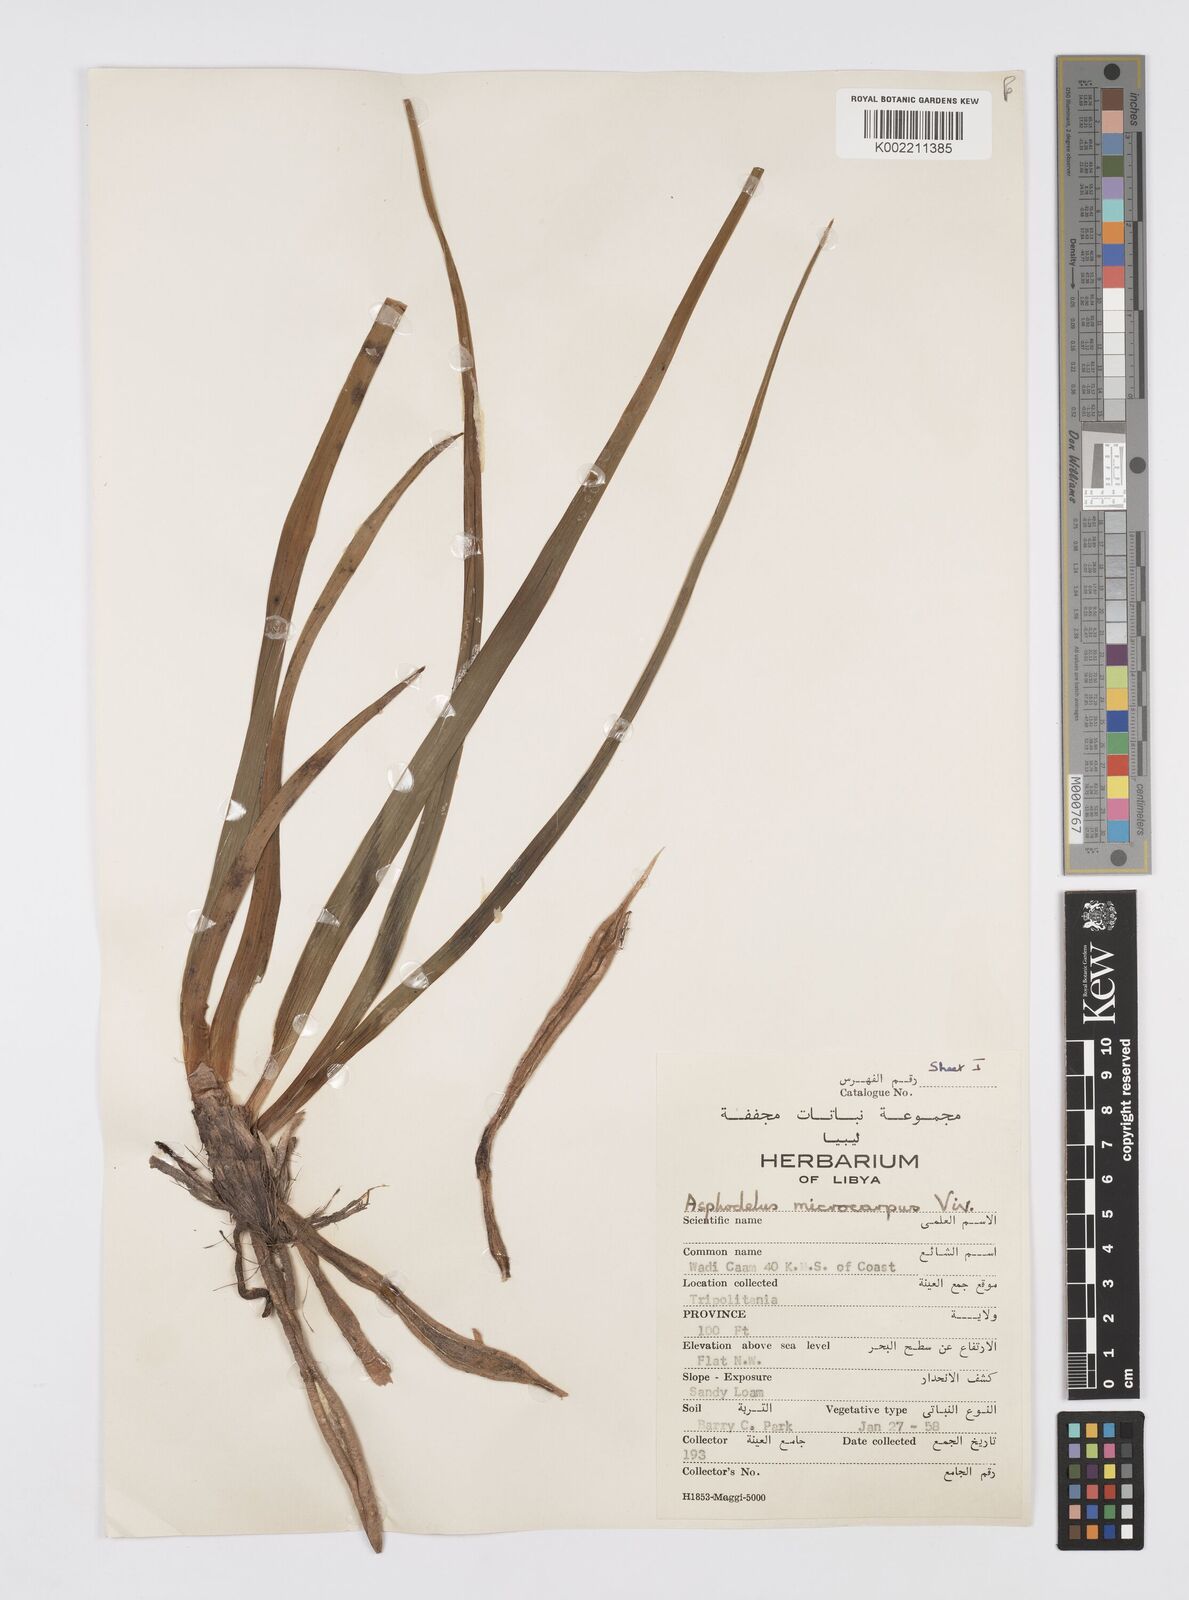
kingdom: Plantae
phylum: Tracheophyta
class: Liliopsida
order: Asparagales
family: Asphodelaceae
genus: Asphodelus
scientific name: Asphodelus ramosus
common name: Silverrod
